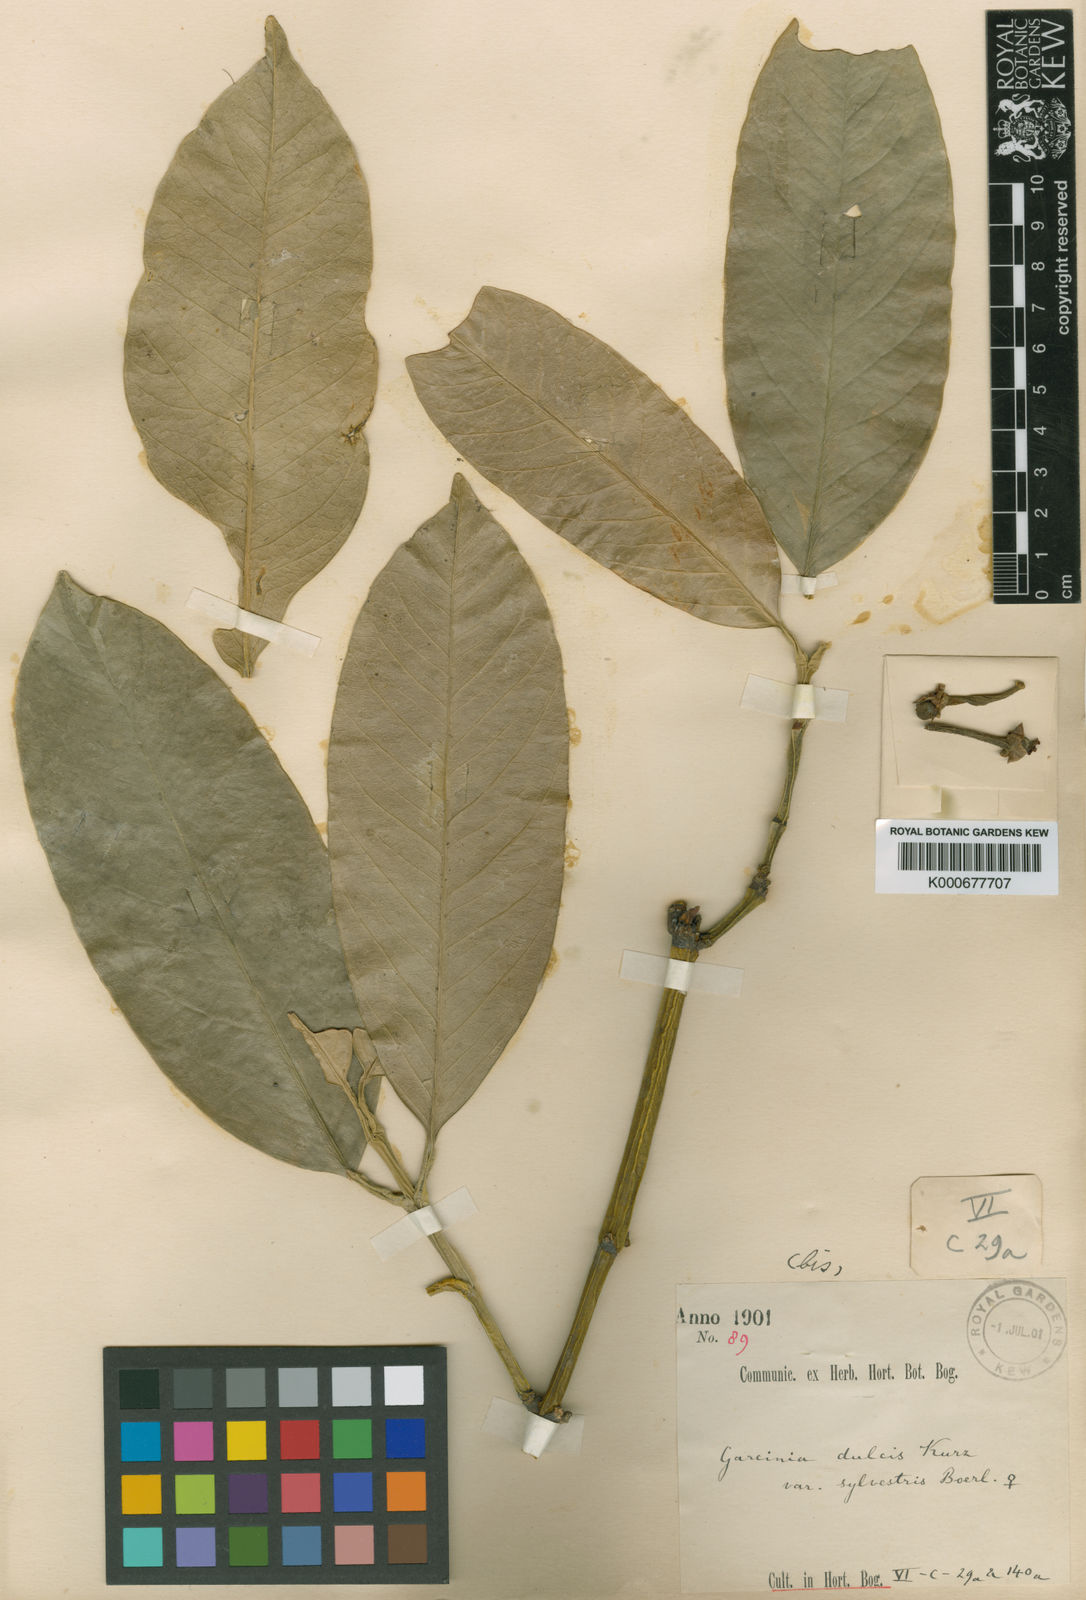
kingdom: Plantae
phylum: Tracheophyta
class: Magnoliopsida
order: Malpighiales
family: Clusiaceae
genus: Garcinia
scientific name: Garcinia dulcis
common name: Eggtree
